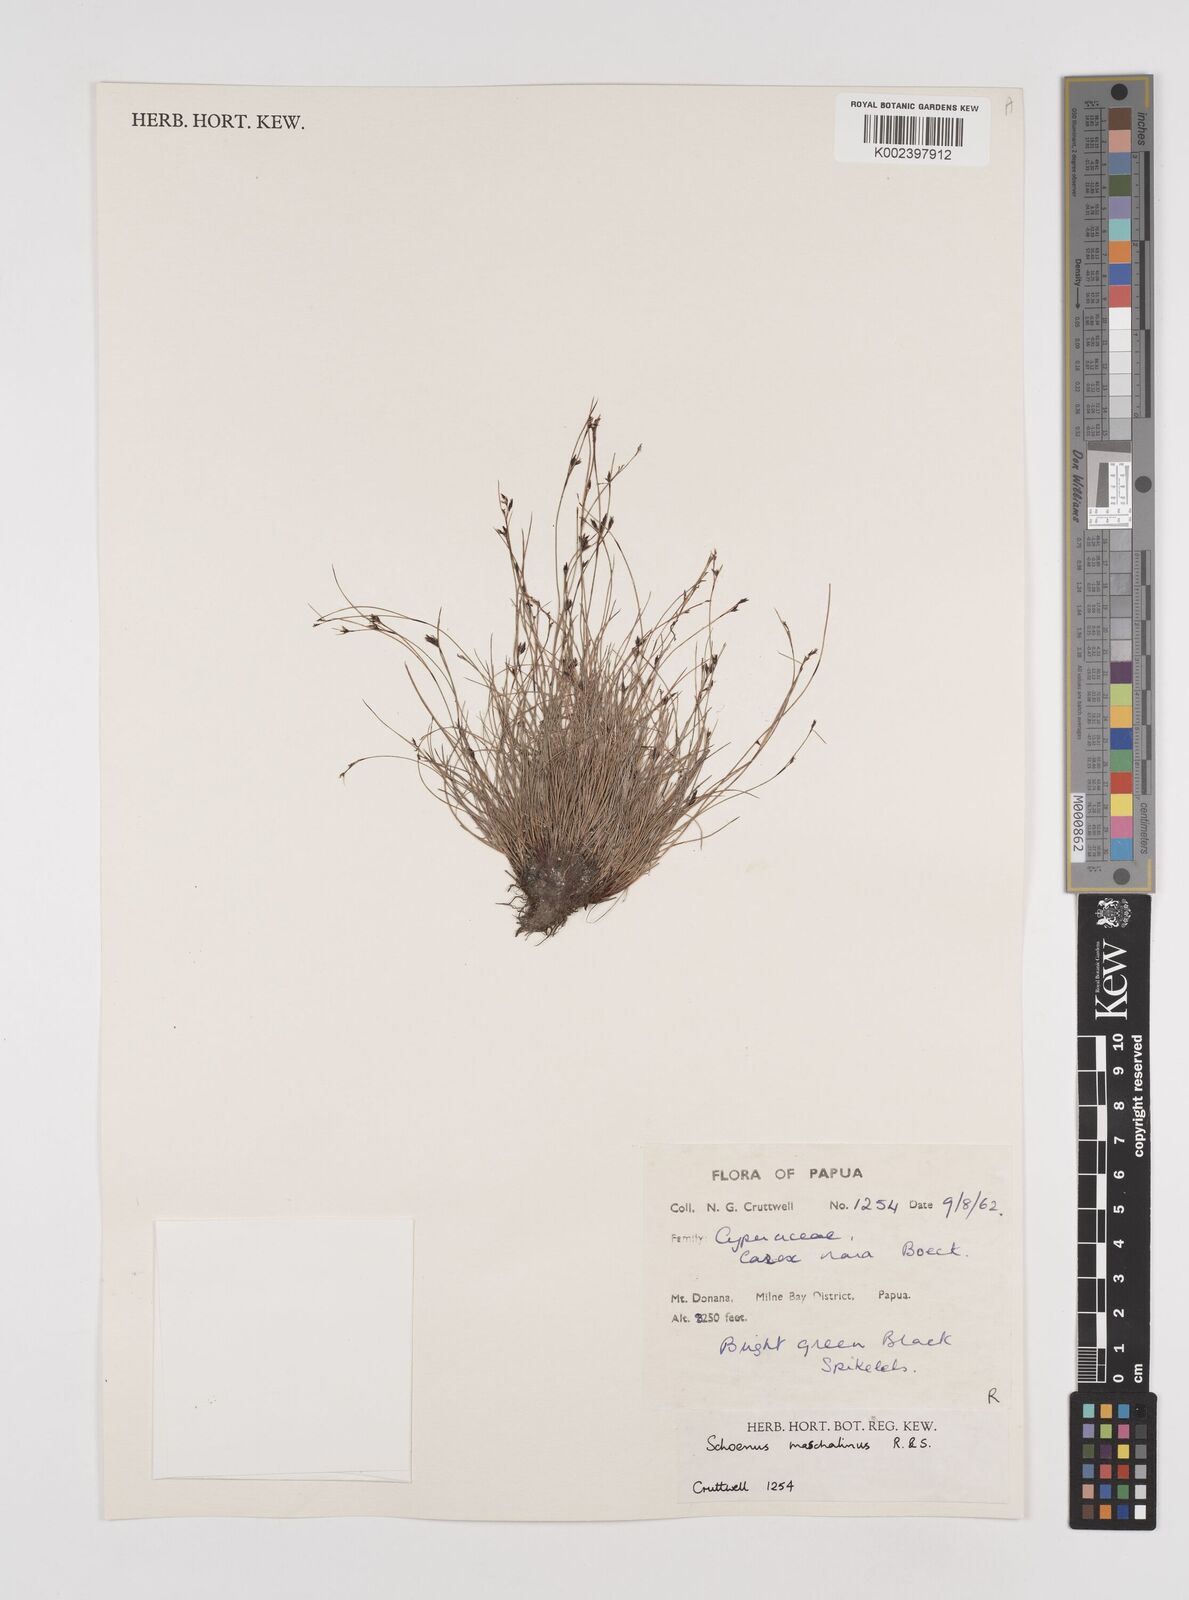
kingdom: Plantae
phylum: Tracheophyta
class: Liliopsida
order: Poales
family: Cyperaceae
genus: Schoenus
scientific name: Schoenus maschalinus
